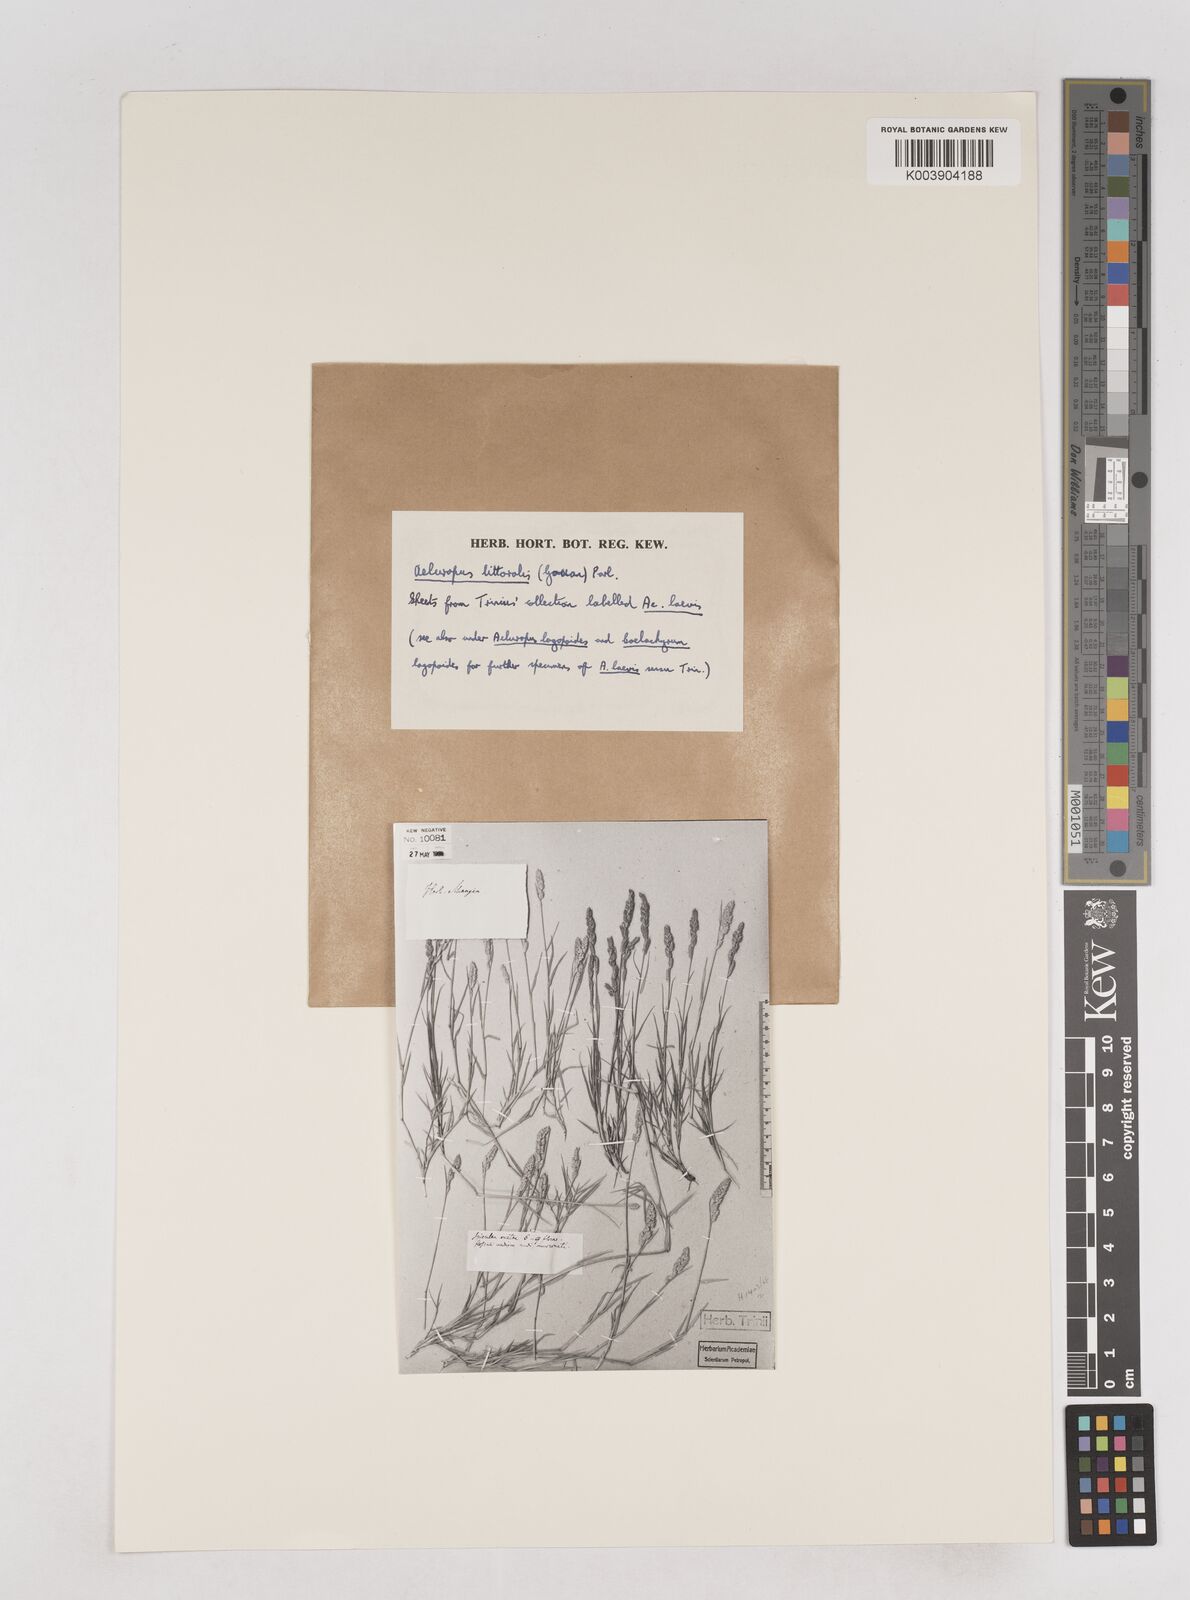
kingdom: Plantae
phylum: Tracheophyta
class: Liliopsida
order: Poales
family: Poaceae
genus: Aeluropus
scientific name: Aeluropus littoralis
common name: Indian walnut
